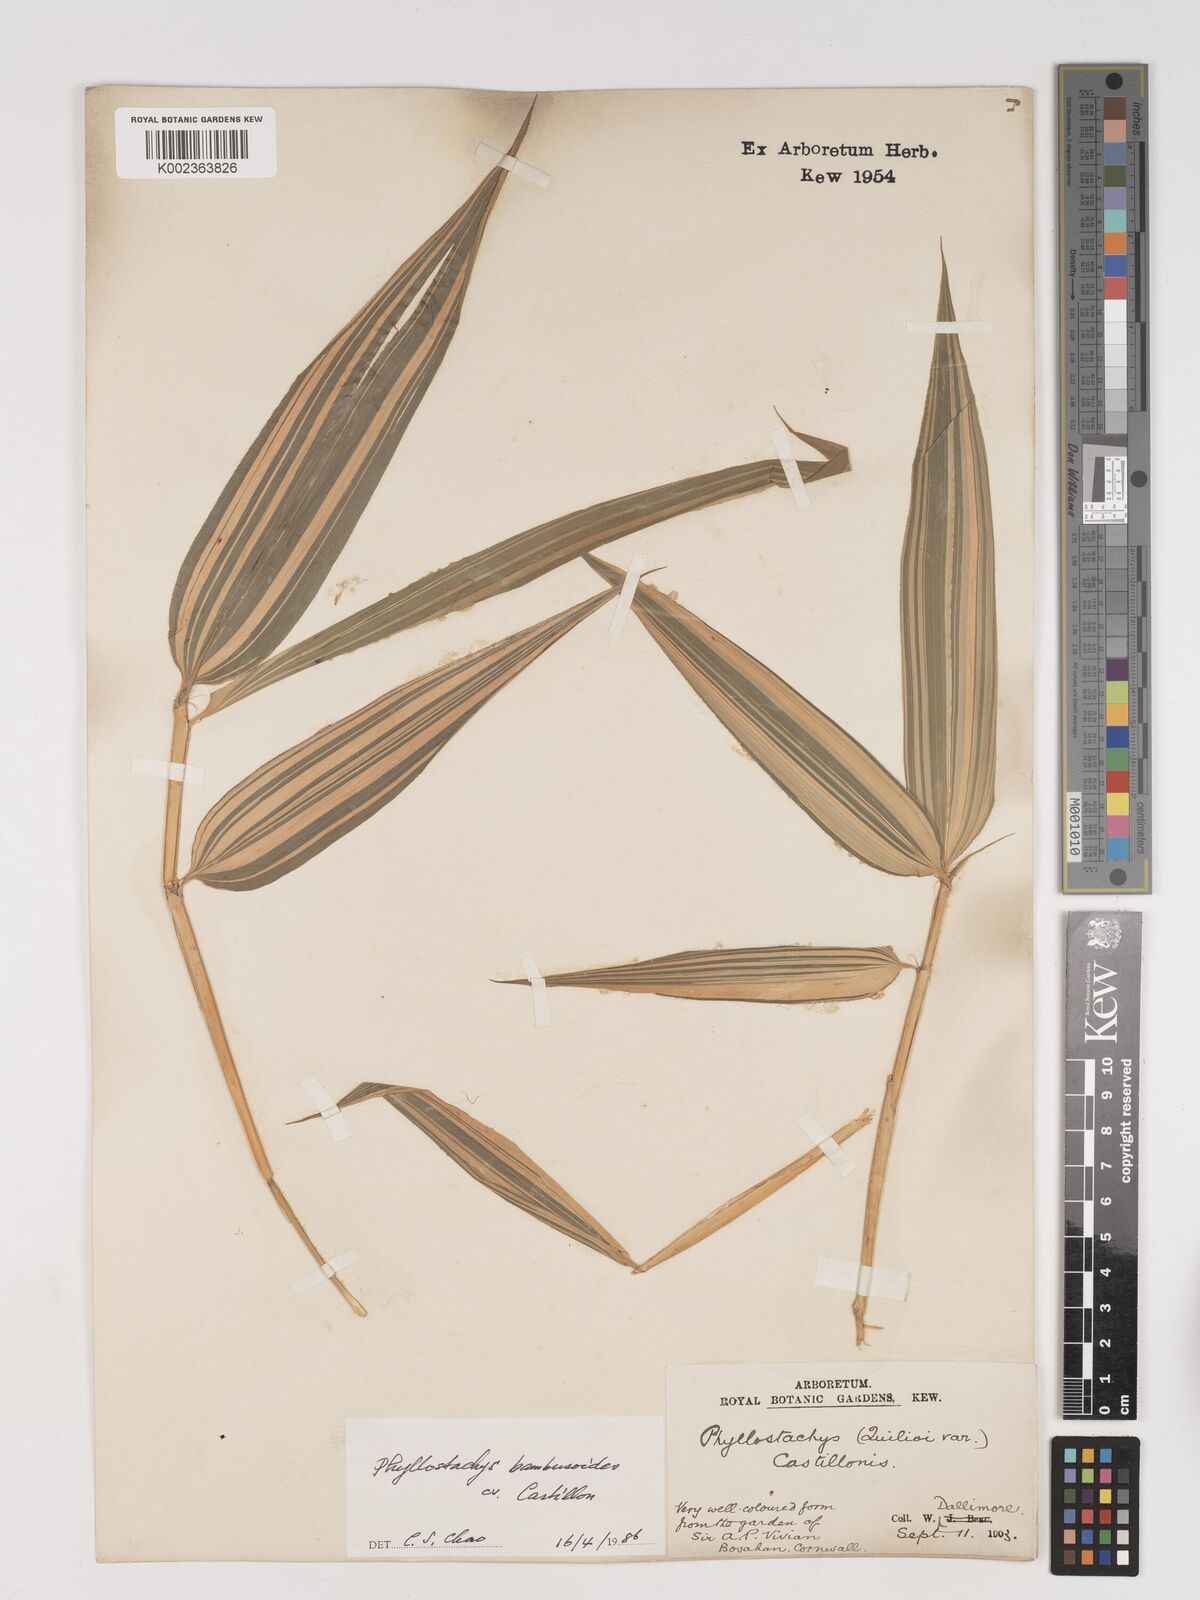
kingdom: Plantae
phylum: Tracheophyta
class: Liliopsida
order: Poales
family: Poaceae
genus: Phyllostachys
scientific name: Phyllostachys reticulata
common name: Bamboo
